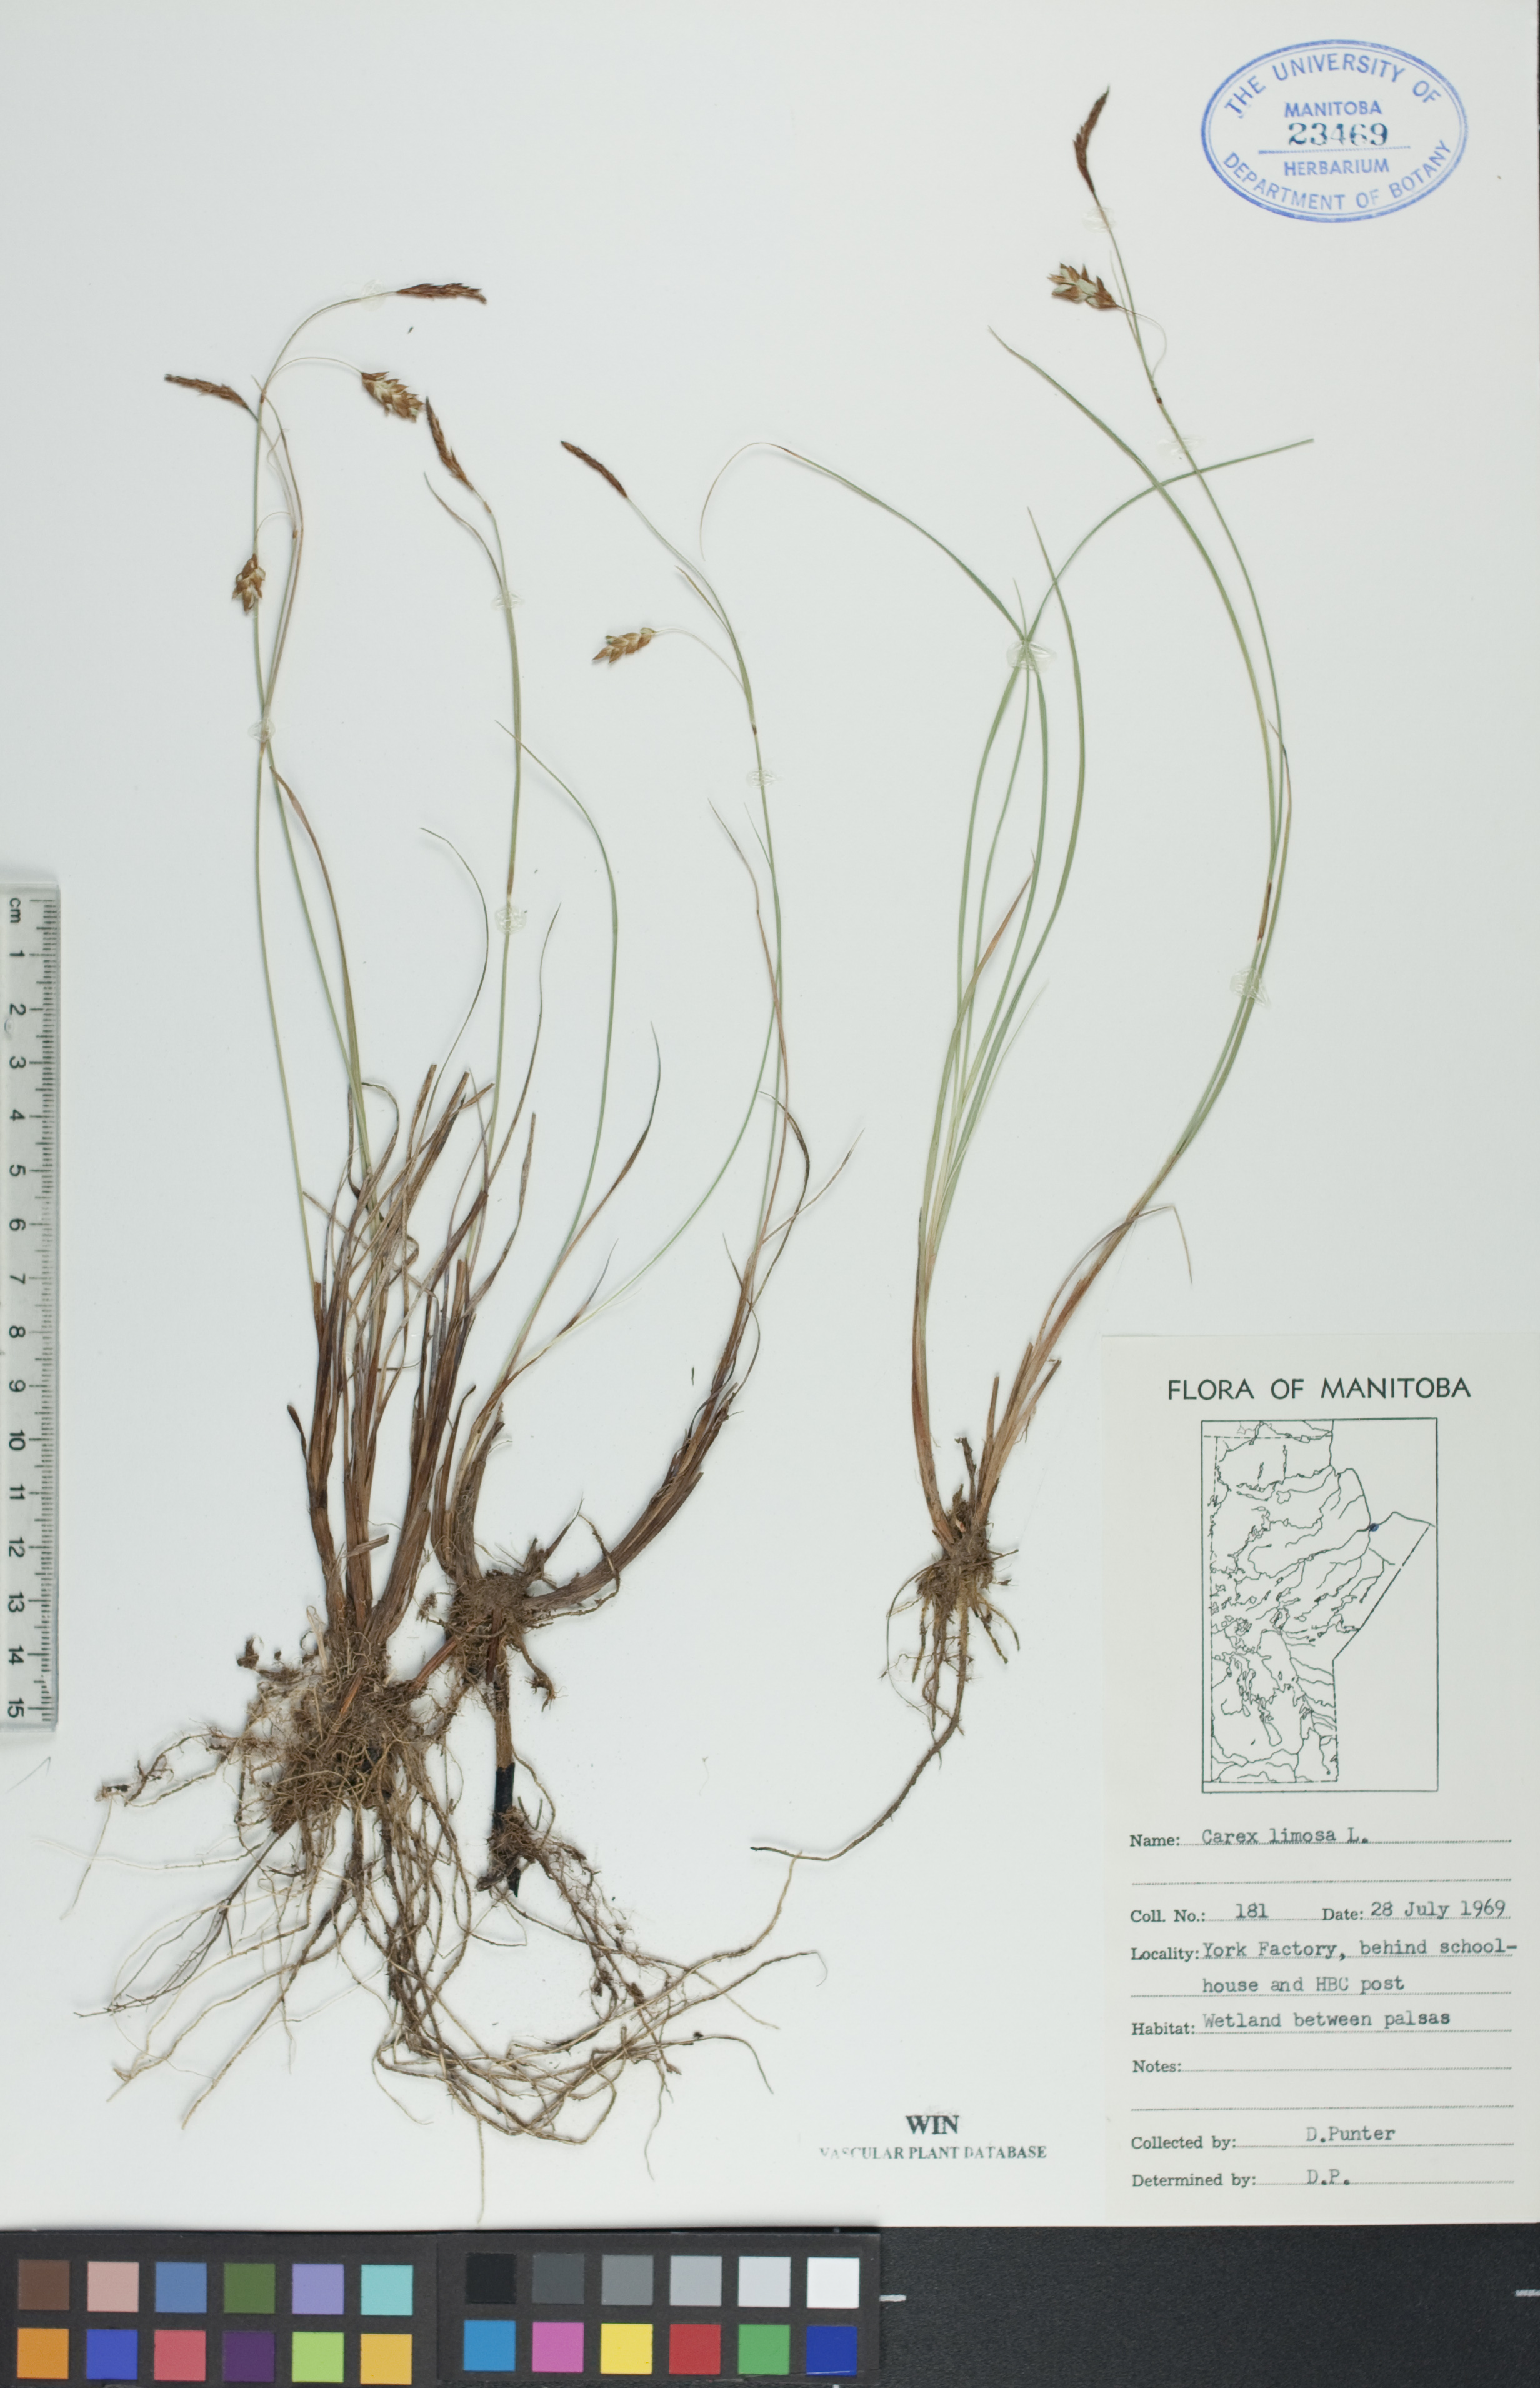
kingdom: Plantae
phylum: Tracheophyta
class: Liliopsida
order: Poales
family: Cyperaceae
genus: Carex
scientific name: Carex limosa
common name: Bog sedge
